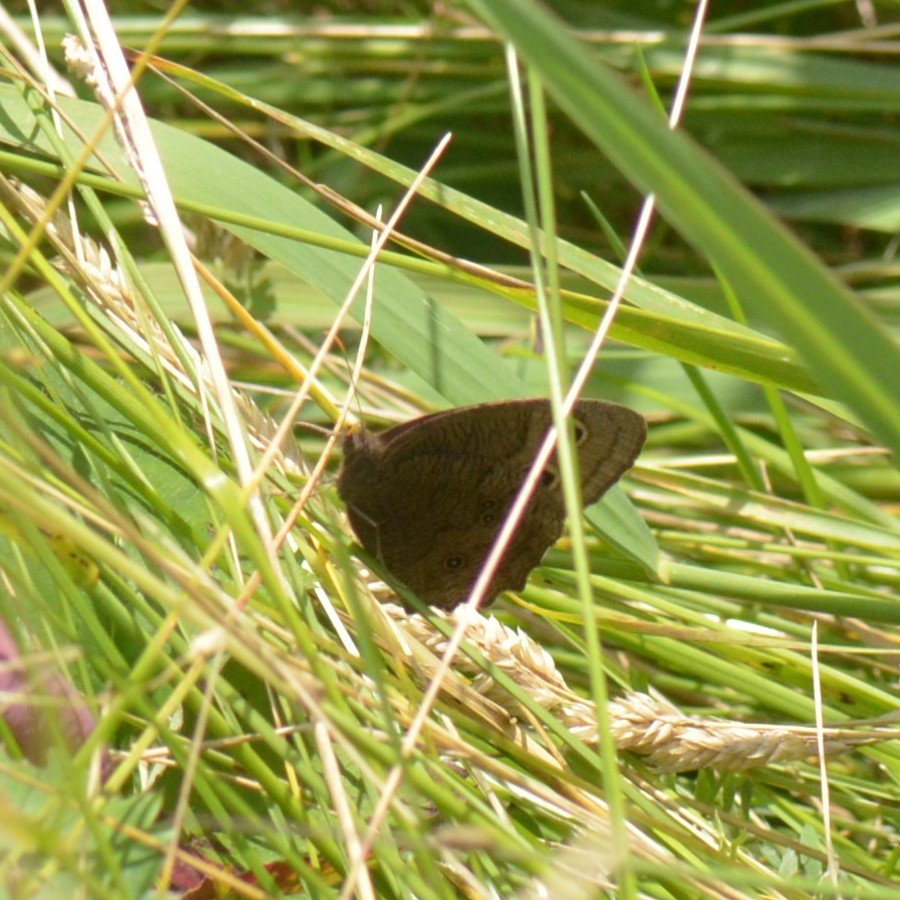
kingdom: Animalia
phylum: Arthropoda
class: Insecta
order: Lepidoptera
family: Nymphalidae
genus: Cercyonis
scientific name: Cercyonis pegala
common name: Common Wood-Nymph
